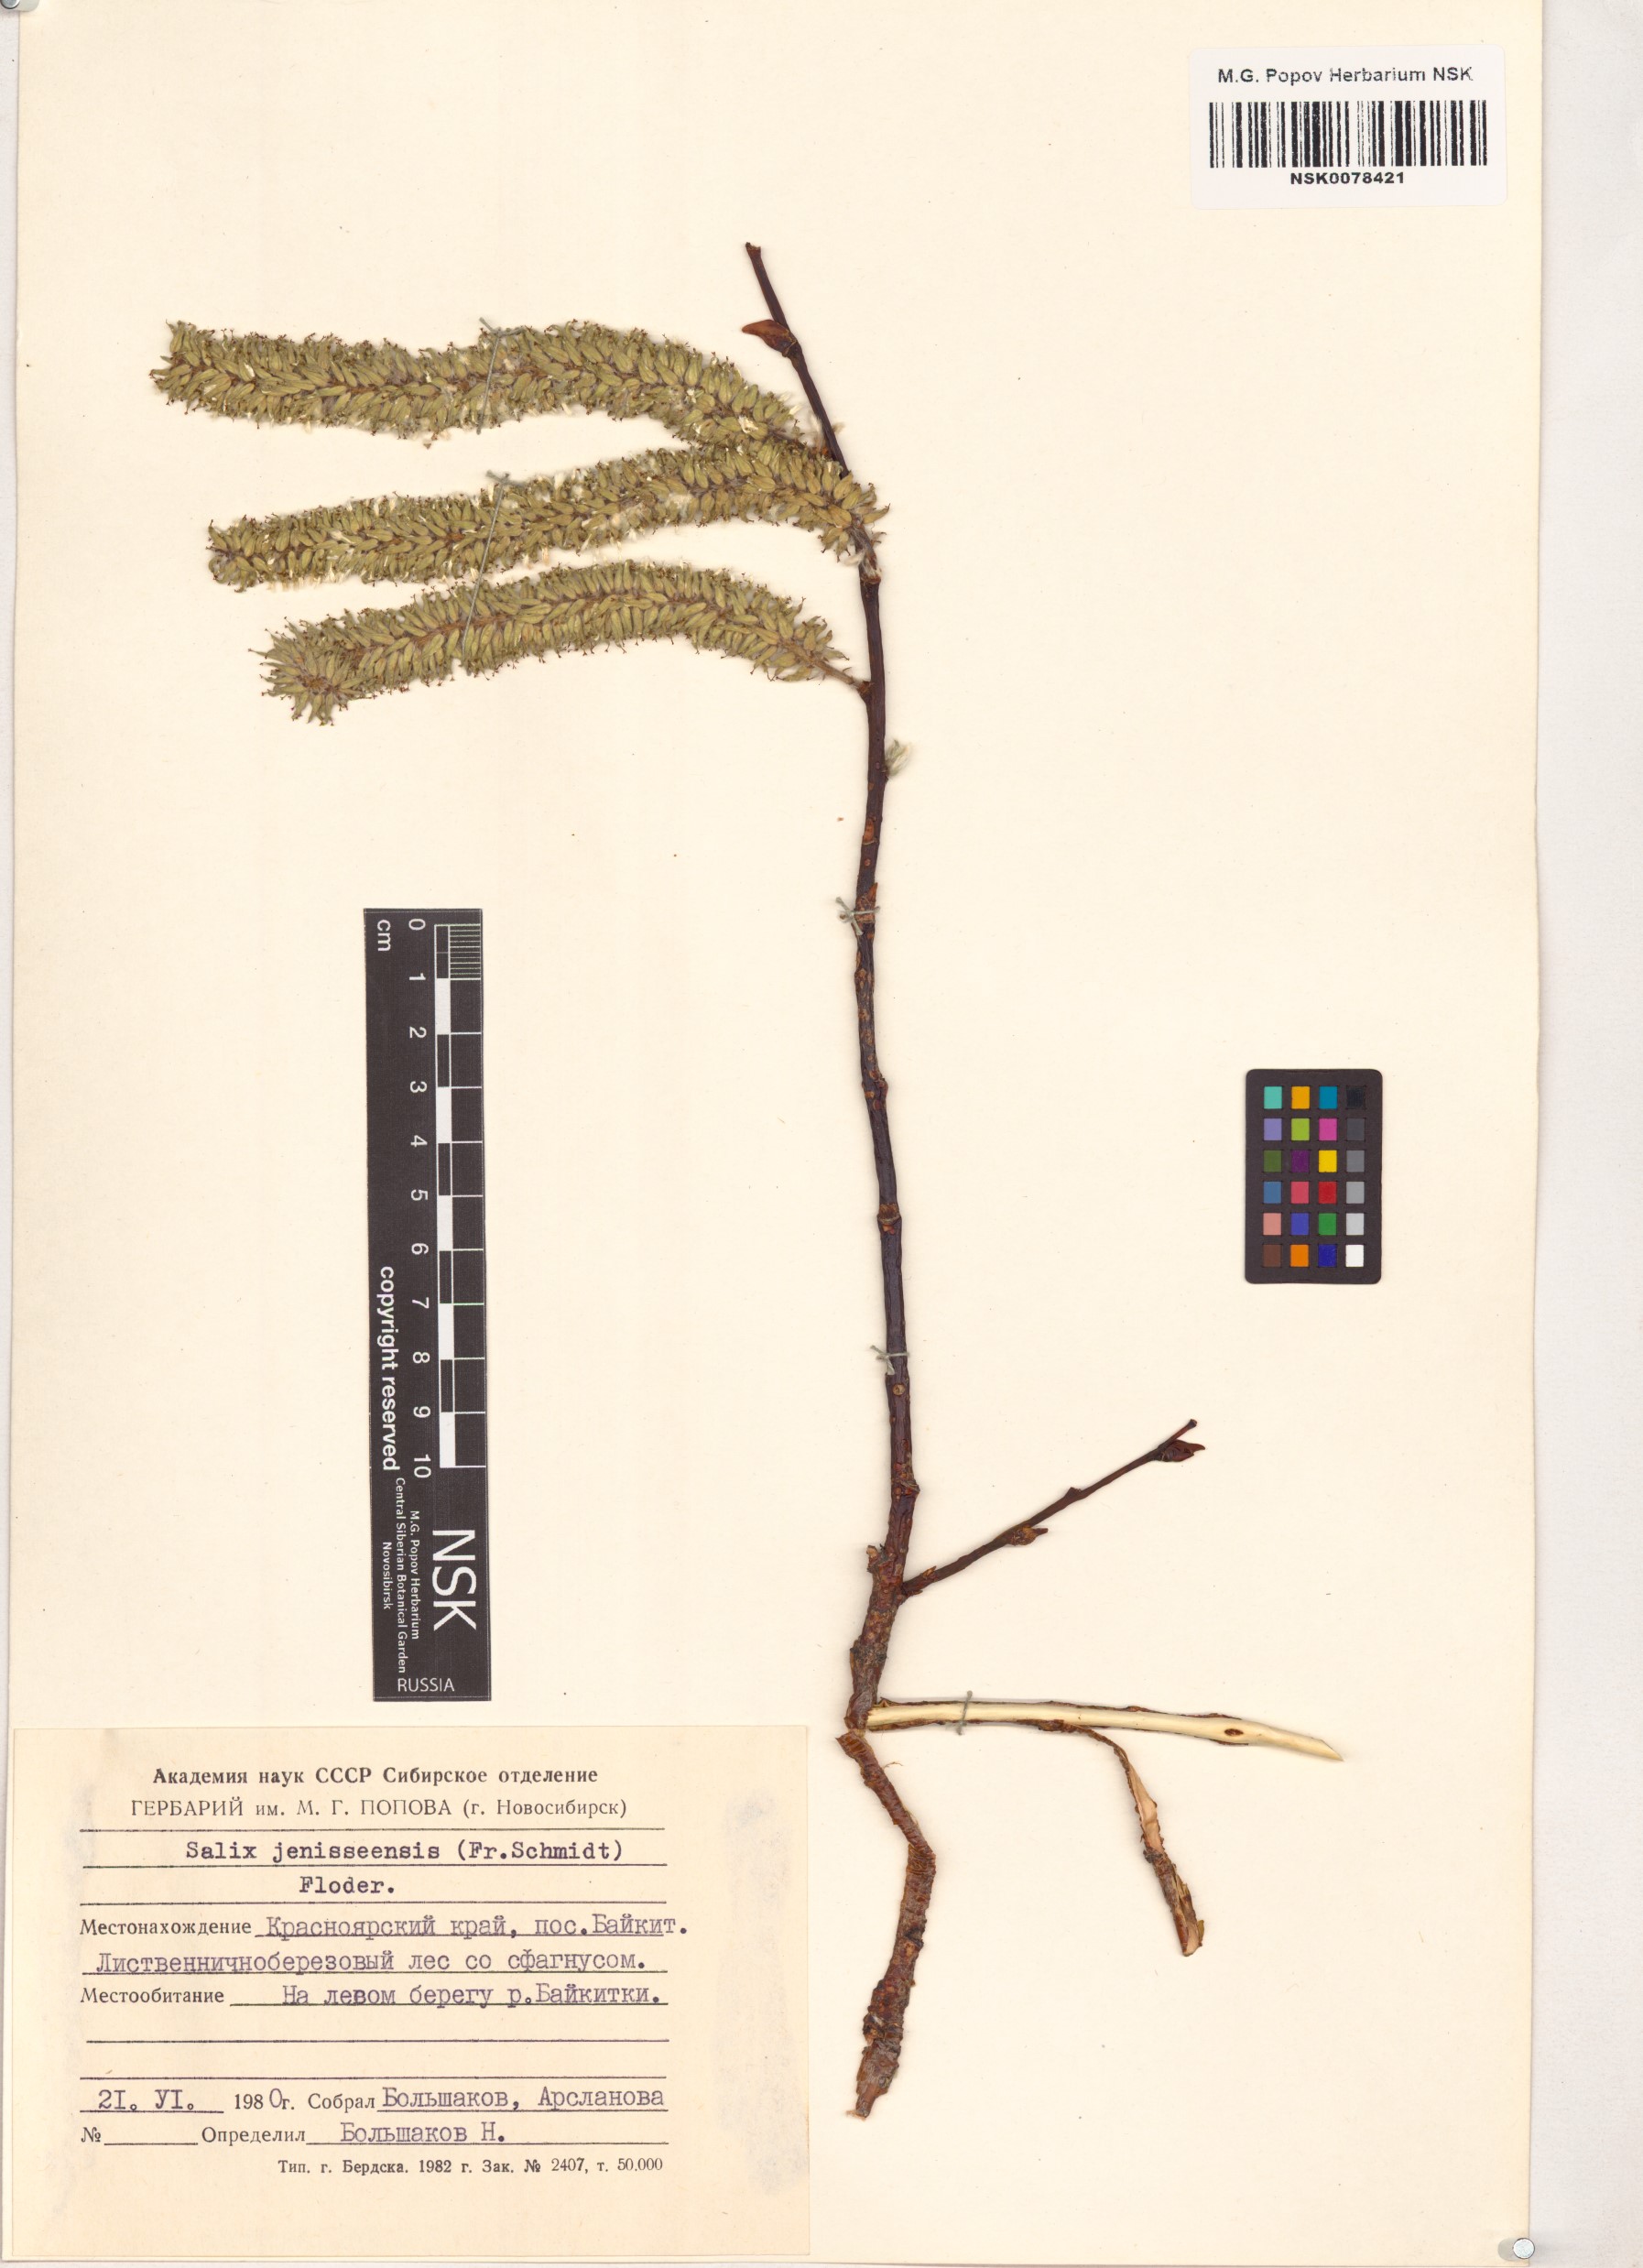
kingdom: Plantae
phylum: Tracheophyta
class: Magnoliopsida
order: Malpighiales
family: Salicaceae
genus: Salix
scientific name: Salix jenisseensis
